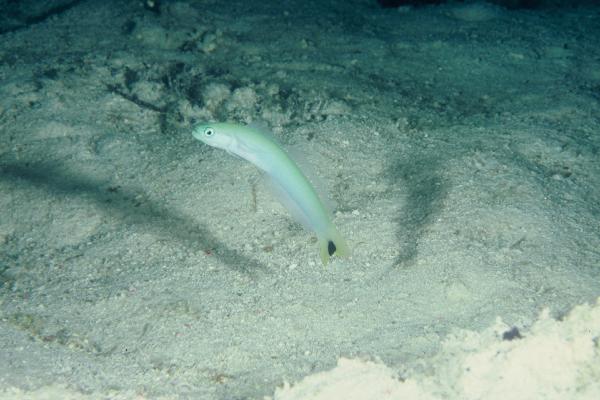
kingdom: Animalia
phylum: Chordata
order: Perciformes
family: Microdesmidae
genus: Ptereleotris
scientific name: Ptereleotris heteroptera
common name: Blacktail goby
